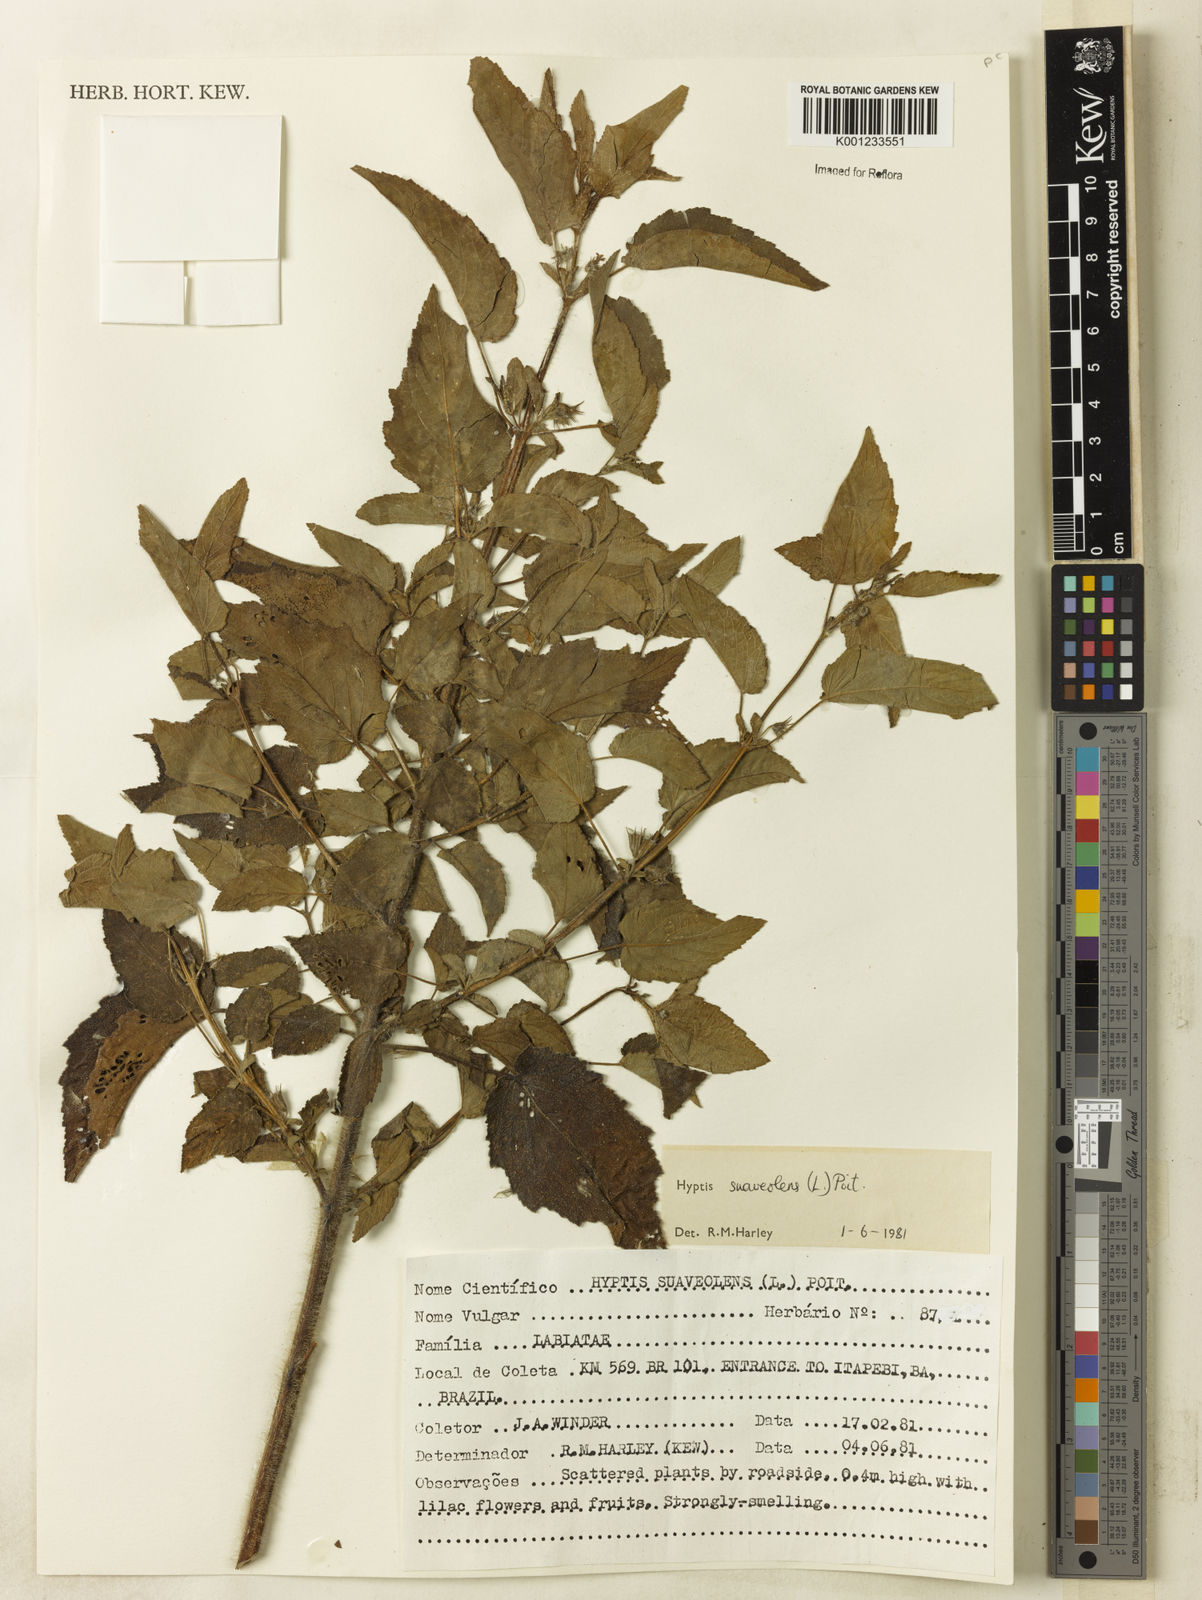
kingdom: Plantae
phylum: Tracheophyta
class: Magnoliopsida
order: Lamiales
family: Lamiaceae
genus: Mesosphaerum
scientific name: Mesosphaerum suaveolens
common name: Pignut
